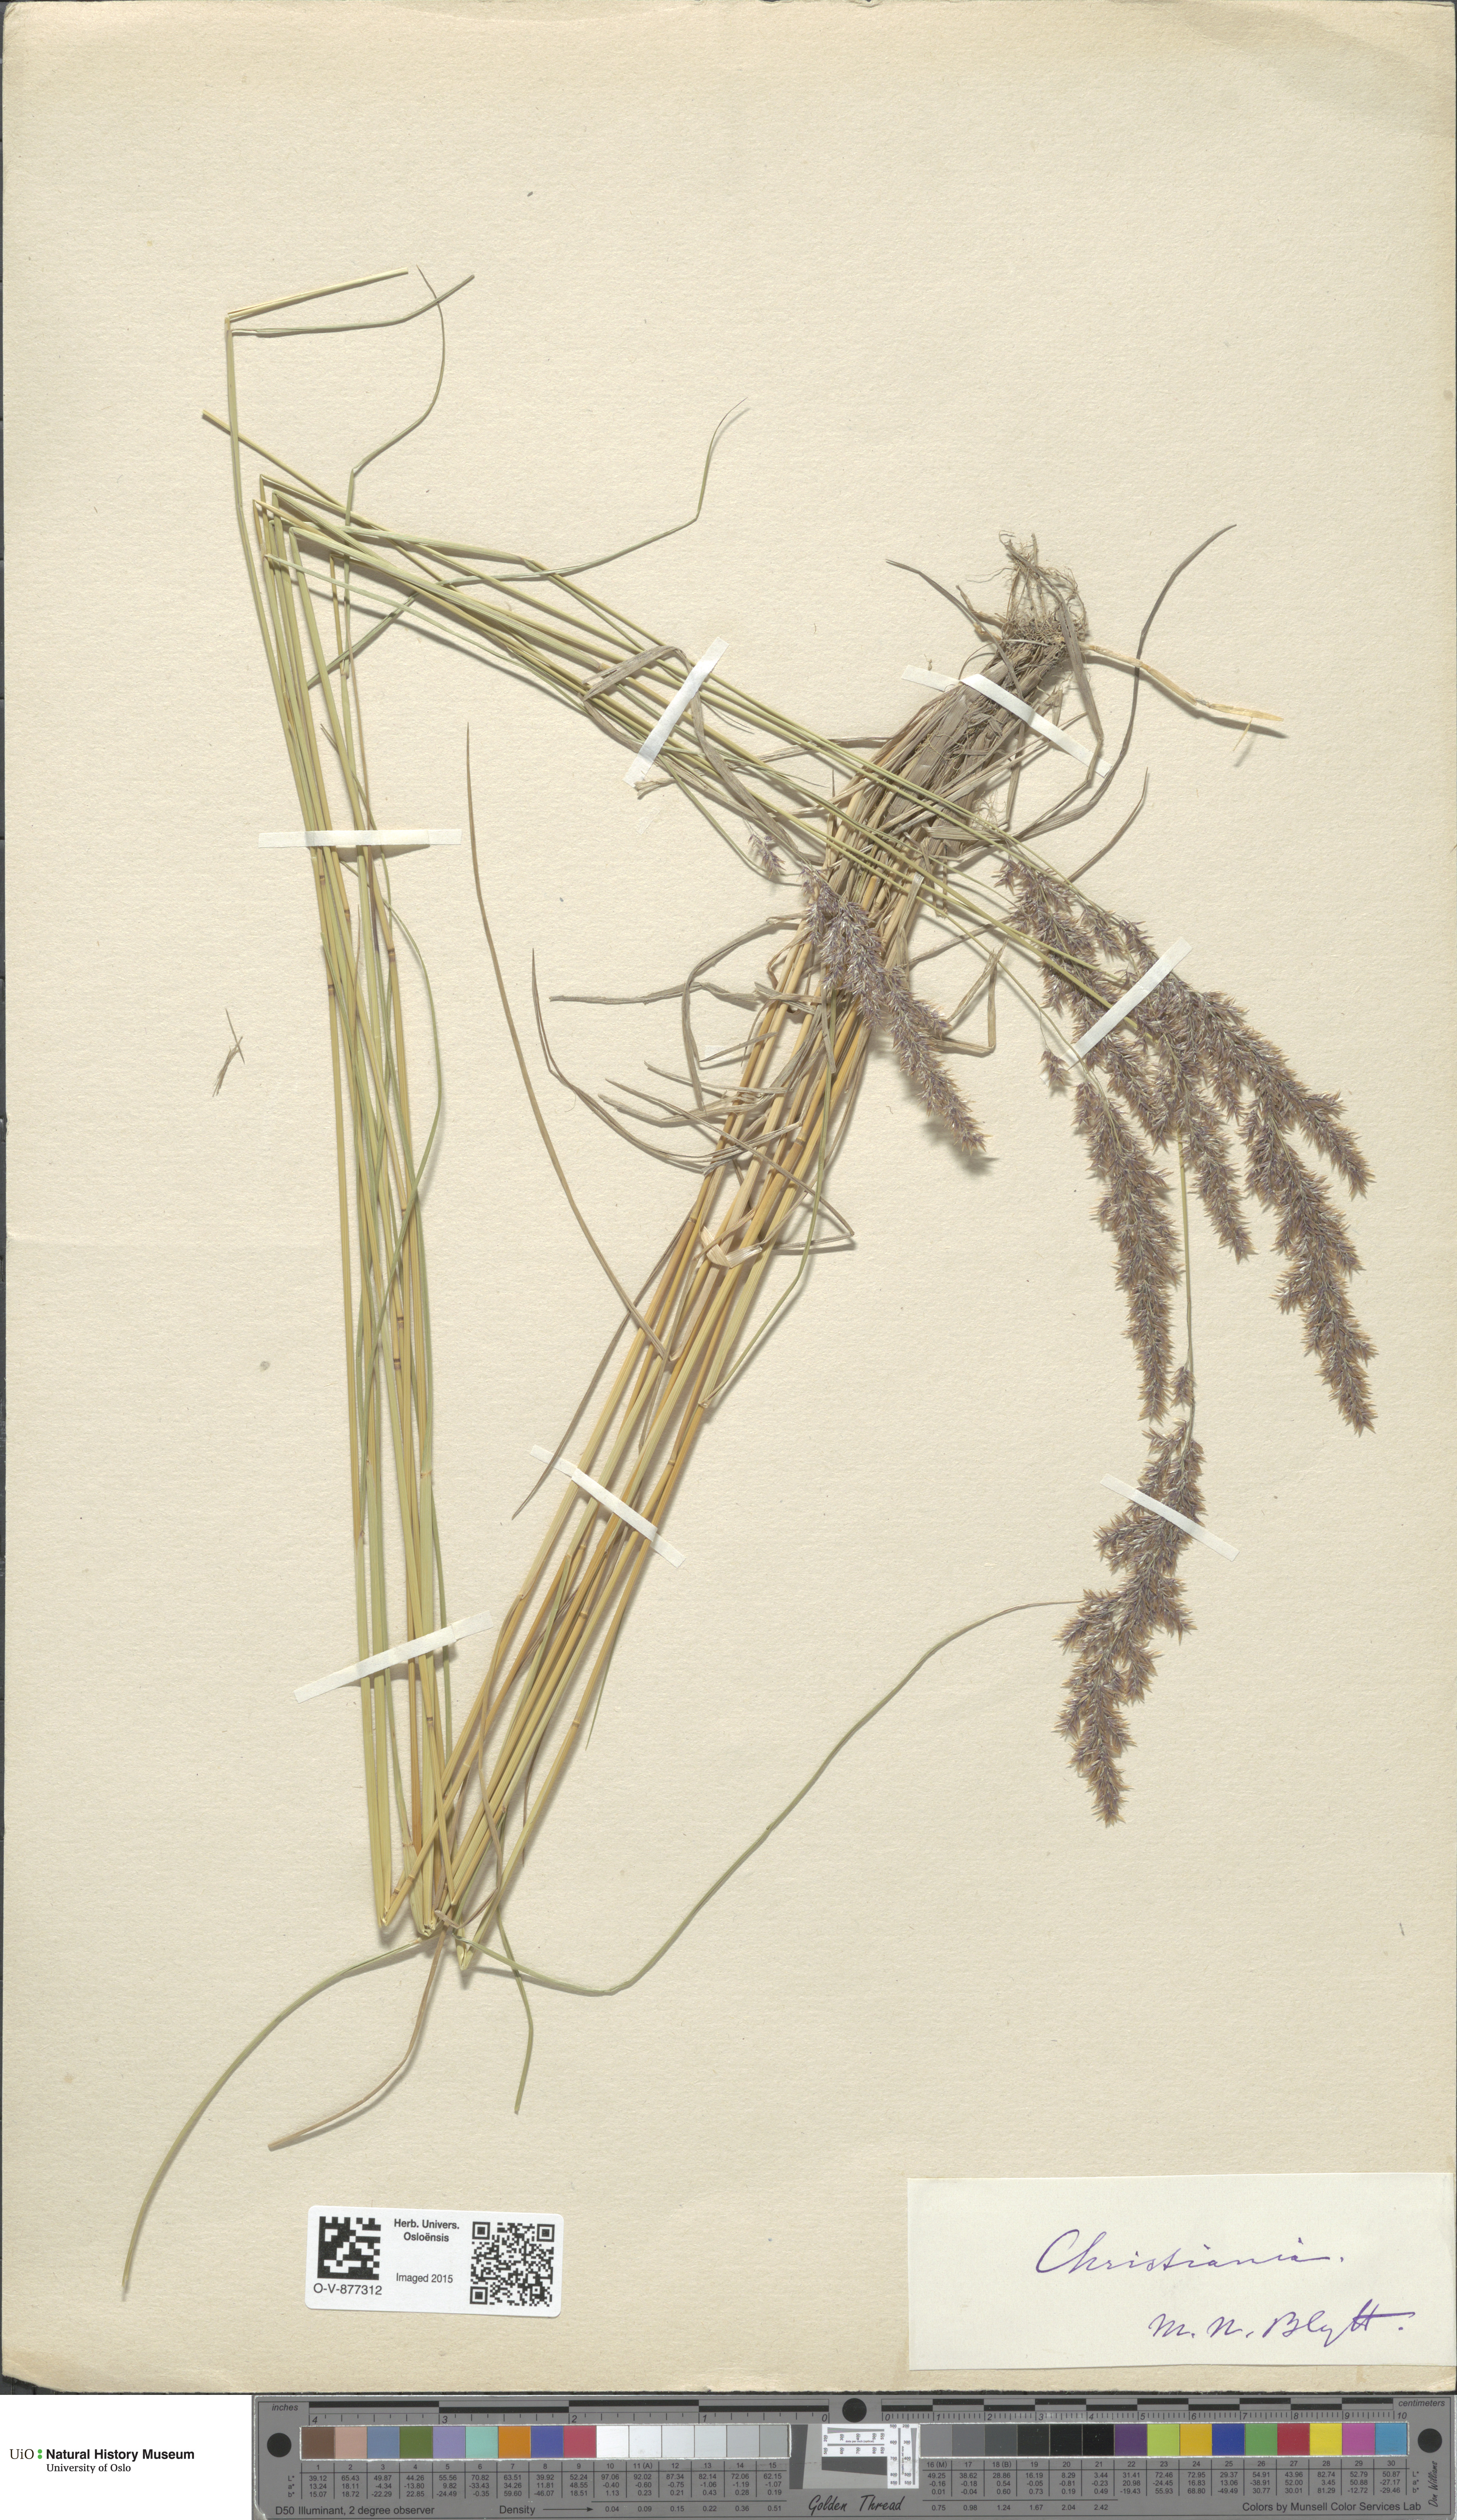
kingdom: Plantae
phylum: Tracheophyta
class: Liliopsida
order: Poales
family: Poaceae
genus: Calamagrostis
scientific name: Calamagrostis
